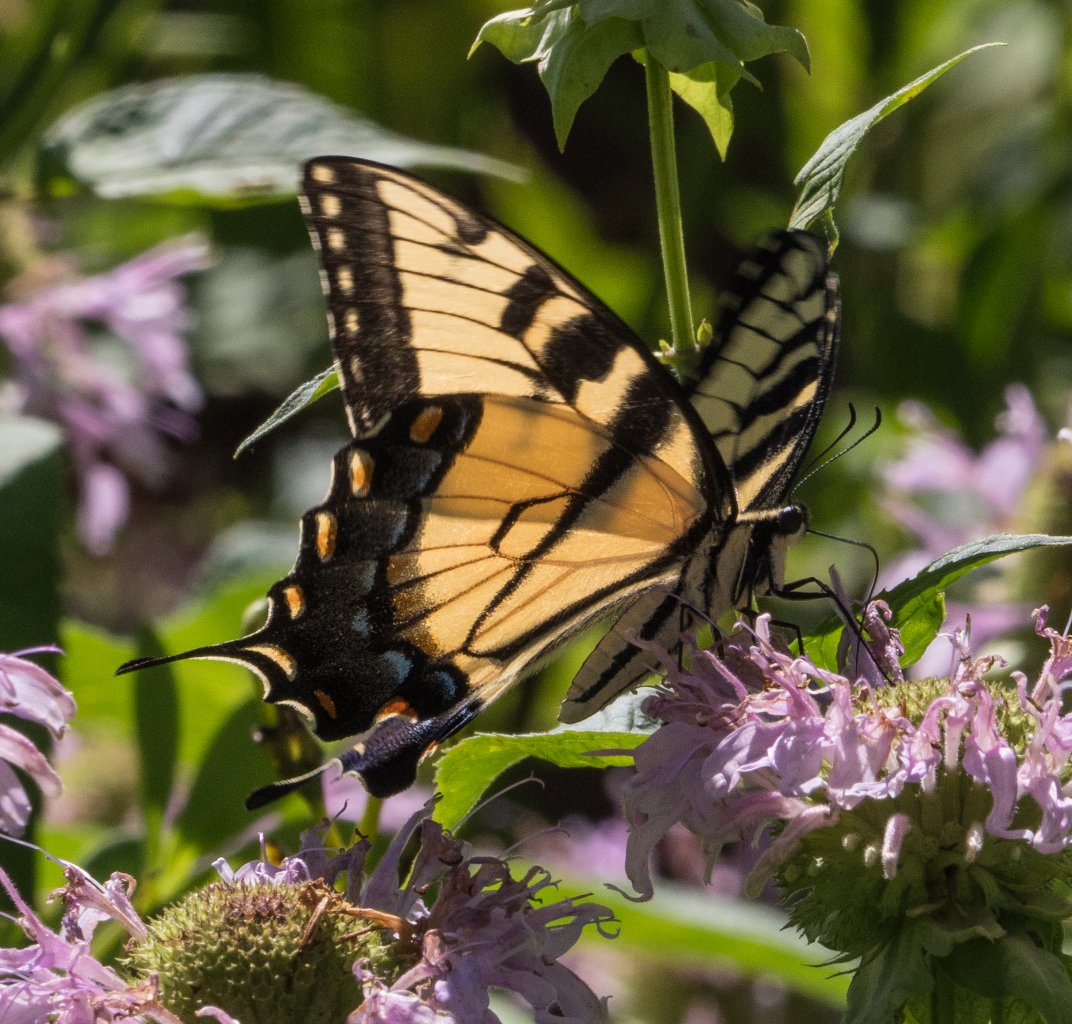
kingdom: Animalia
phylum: Arthropoda
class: Insecta
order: Lepidoptera
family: Papilionidae
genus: Pterourus
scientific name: Pterourus glaucus
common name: Eastern Tiger Swallowtail
